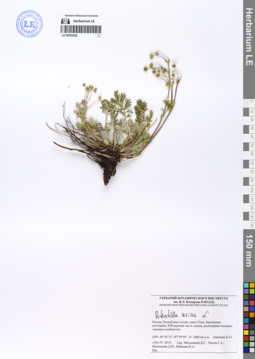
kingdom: Plantae
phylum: Tracheophyta
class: Magnoliopsida
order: Rosales
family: Rosaceae
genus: Potentilla
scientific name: Potentilla sericea
